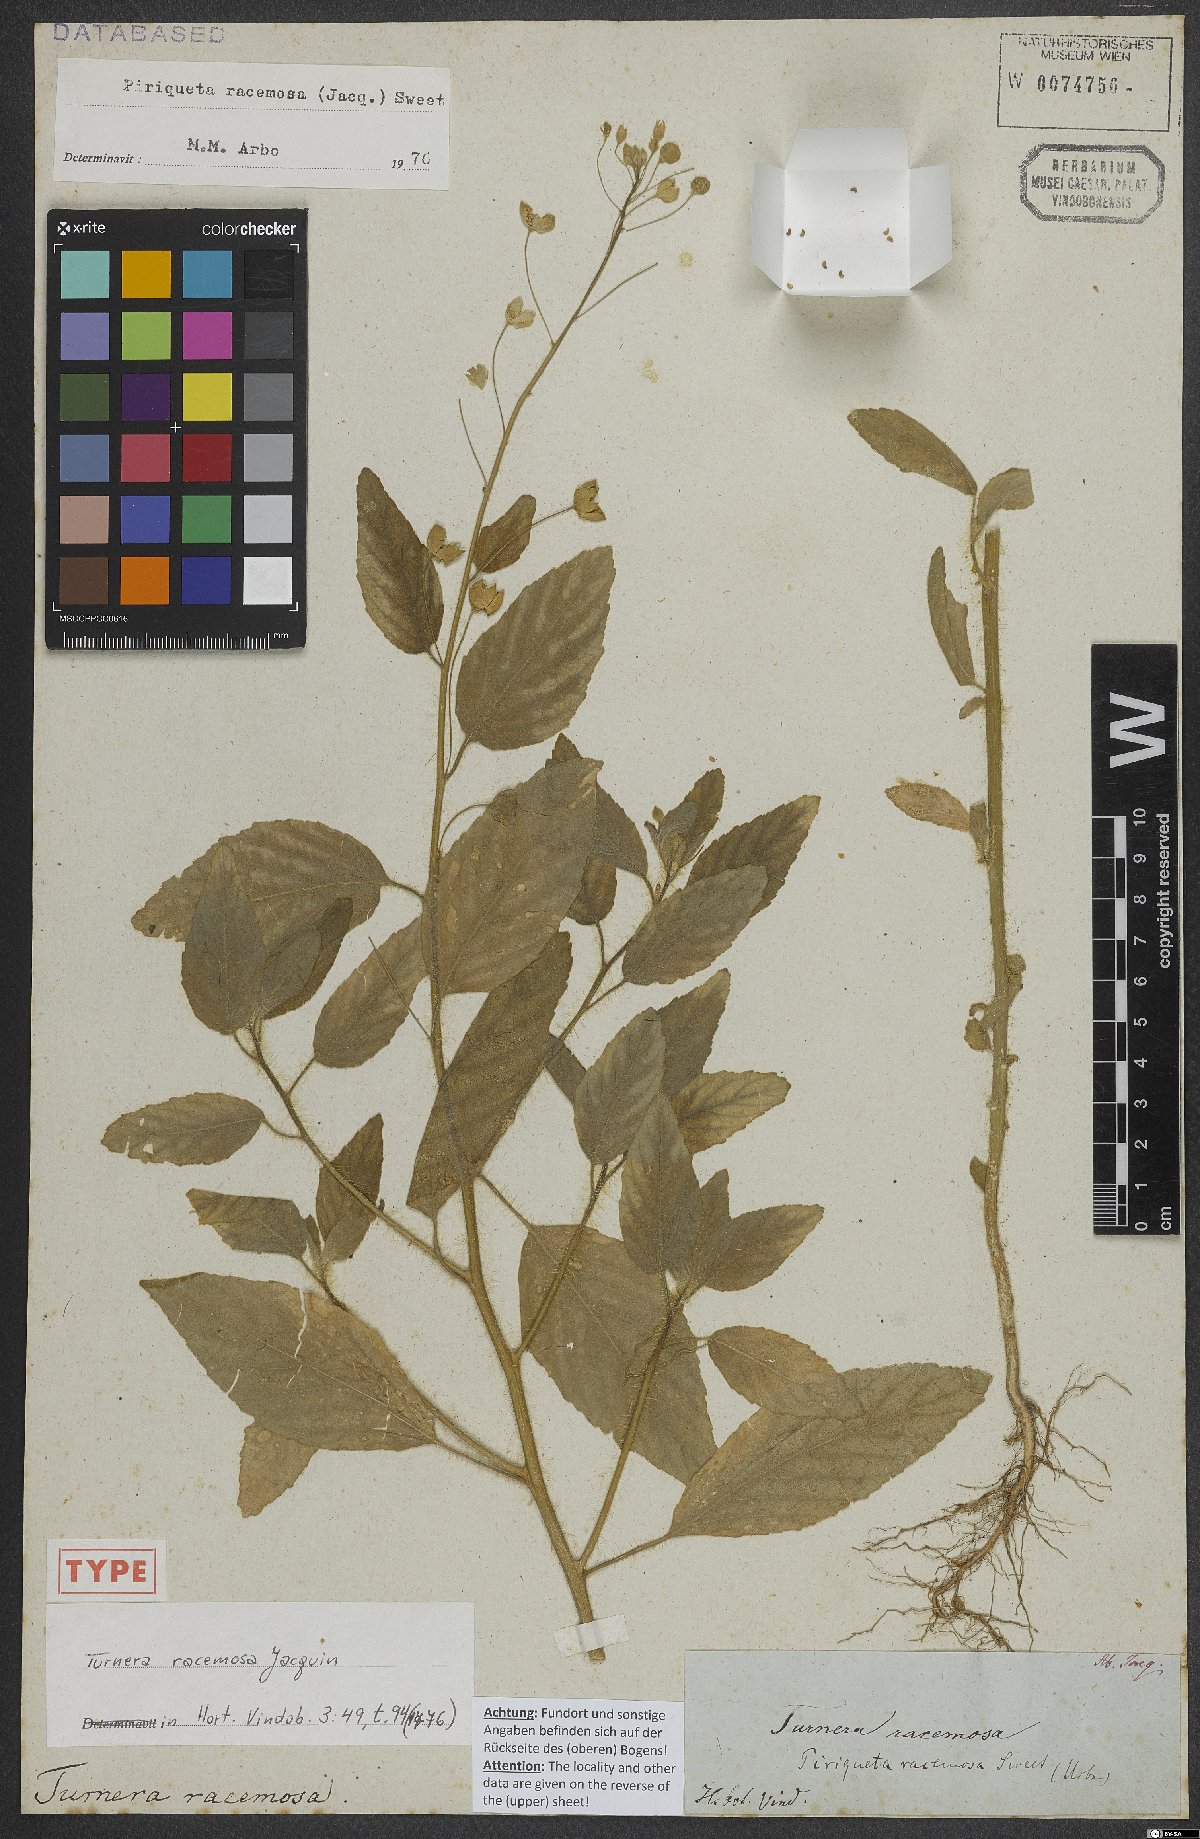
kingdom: Plantae
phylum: Tracheophyta
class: Magnoliopsida
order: Malpighiales
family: Turneraceae
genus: Piriqueta
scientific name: Piriqueta racemosa
